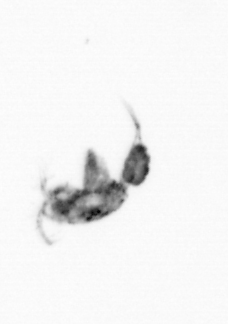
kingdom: Animalia
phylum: Arthropoda
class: Copepoda
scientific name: Copepoda
